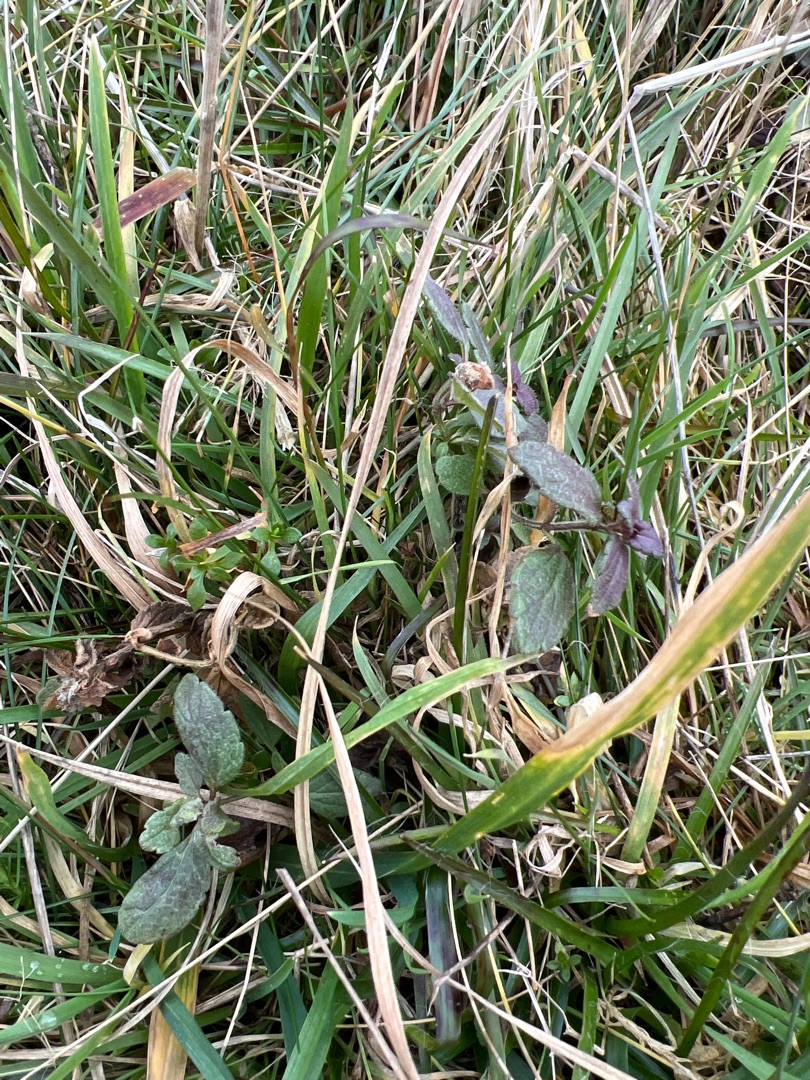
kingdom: Plantae
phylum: Tracheophyta
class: Magnoliopsida
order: Lamiales
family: Plantaginaceae
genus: Veronica
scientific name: Veronica chamaedrys
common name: Tveskægget ærenpris
